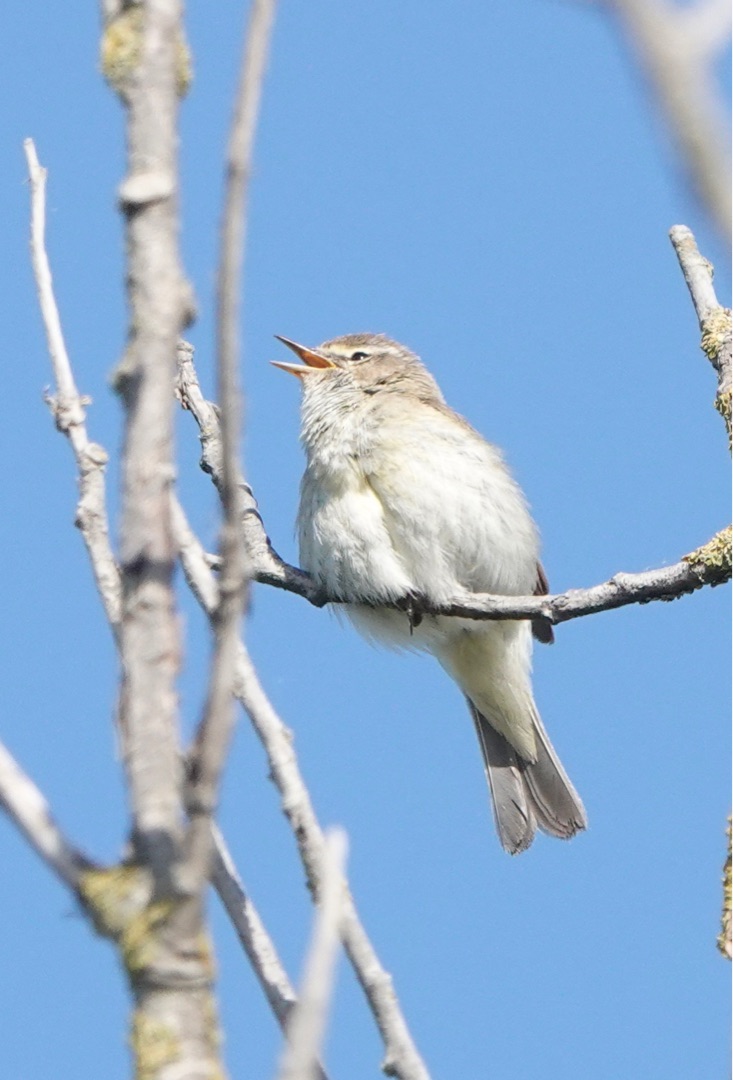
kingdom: Animalia
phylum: Chordata
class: Aves
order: Passeriformes
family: Phylloscopidae
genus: Phylloscopus
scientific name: Phylloscopus collybita
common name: Gransanger
